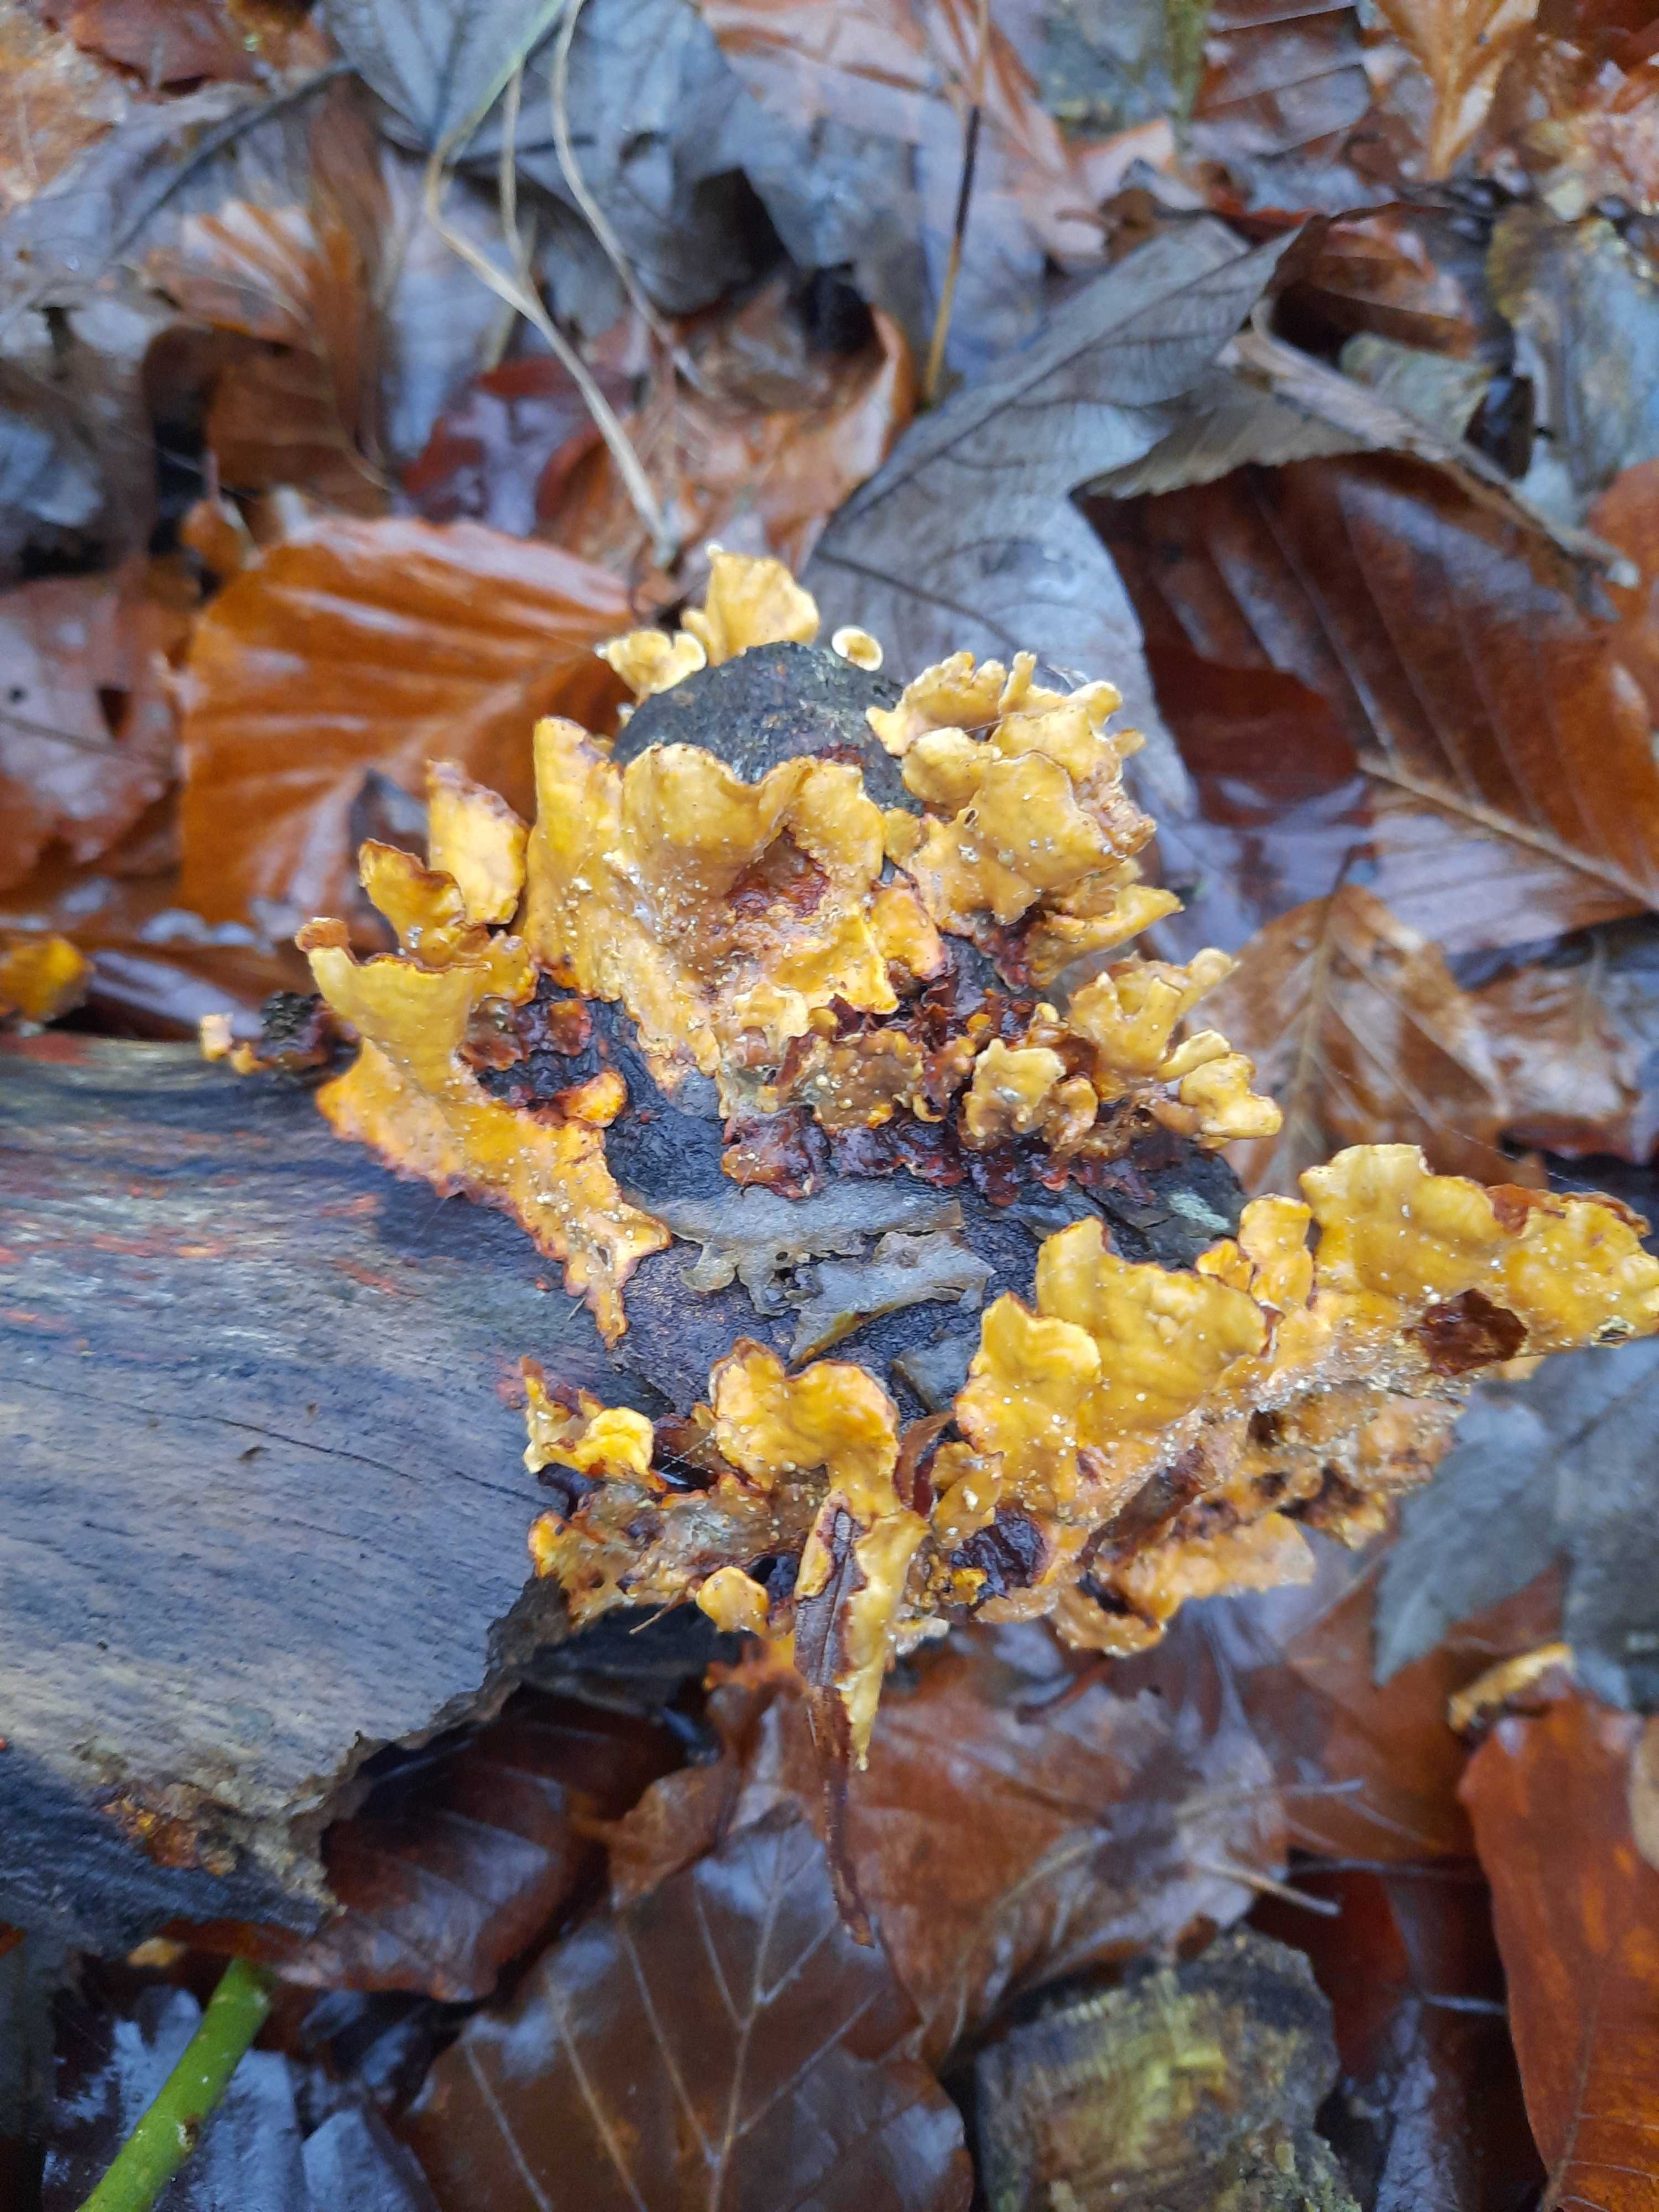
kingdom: Fungi
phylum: Basidiomycota
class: Agaricomycetes
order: Russulales
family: Stereaceae
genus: Stereum
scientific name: Stereum hirsutum
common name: håret lædersvamp
